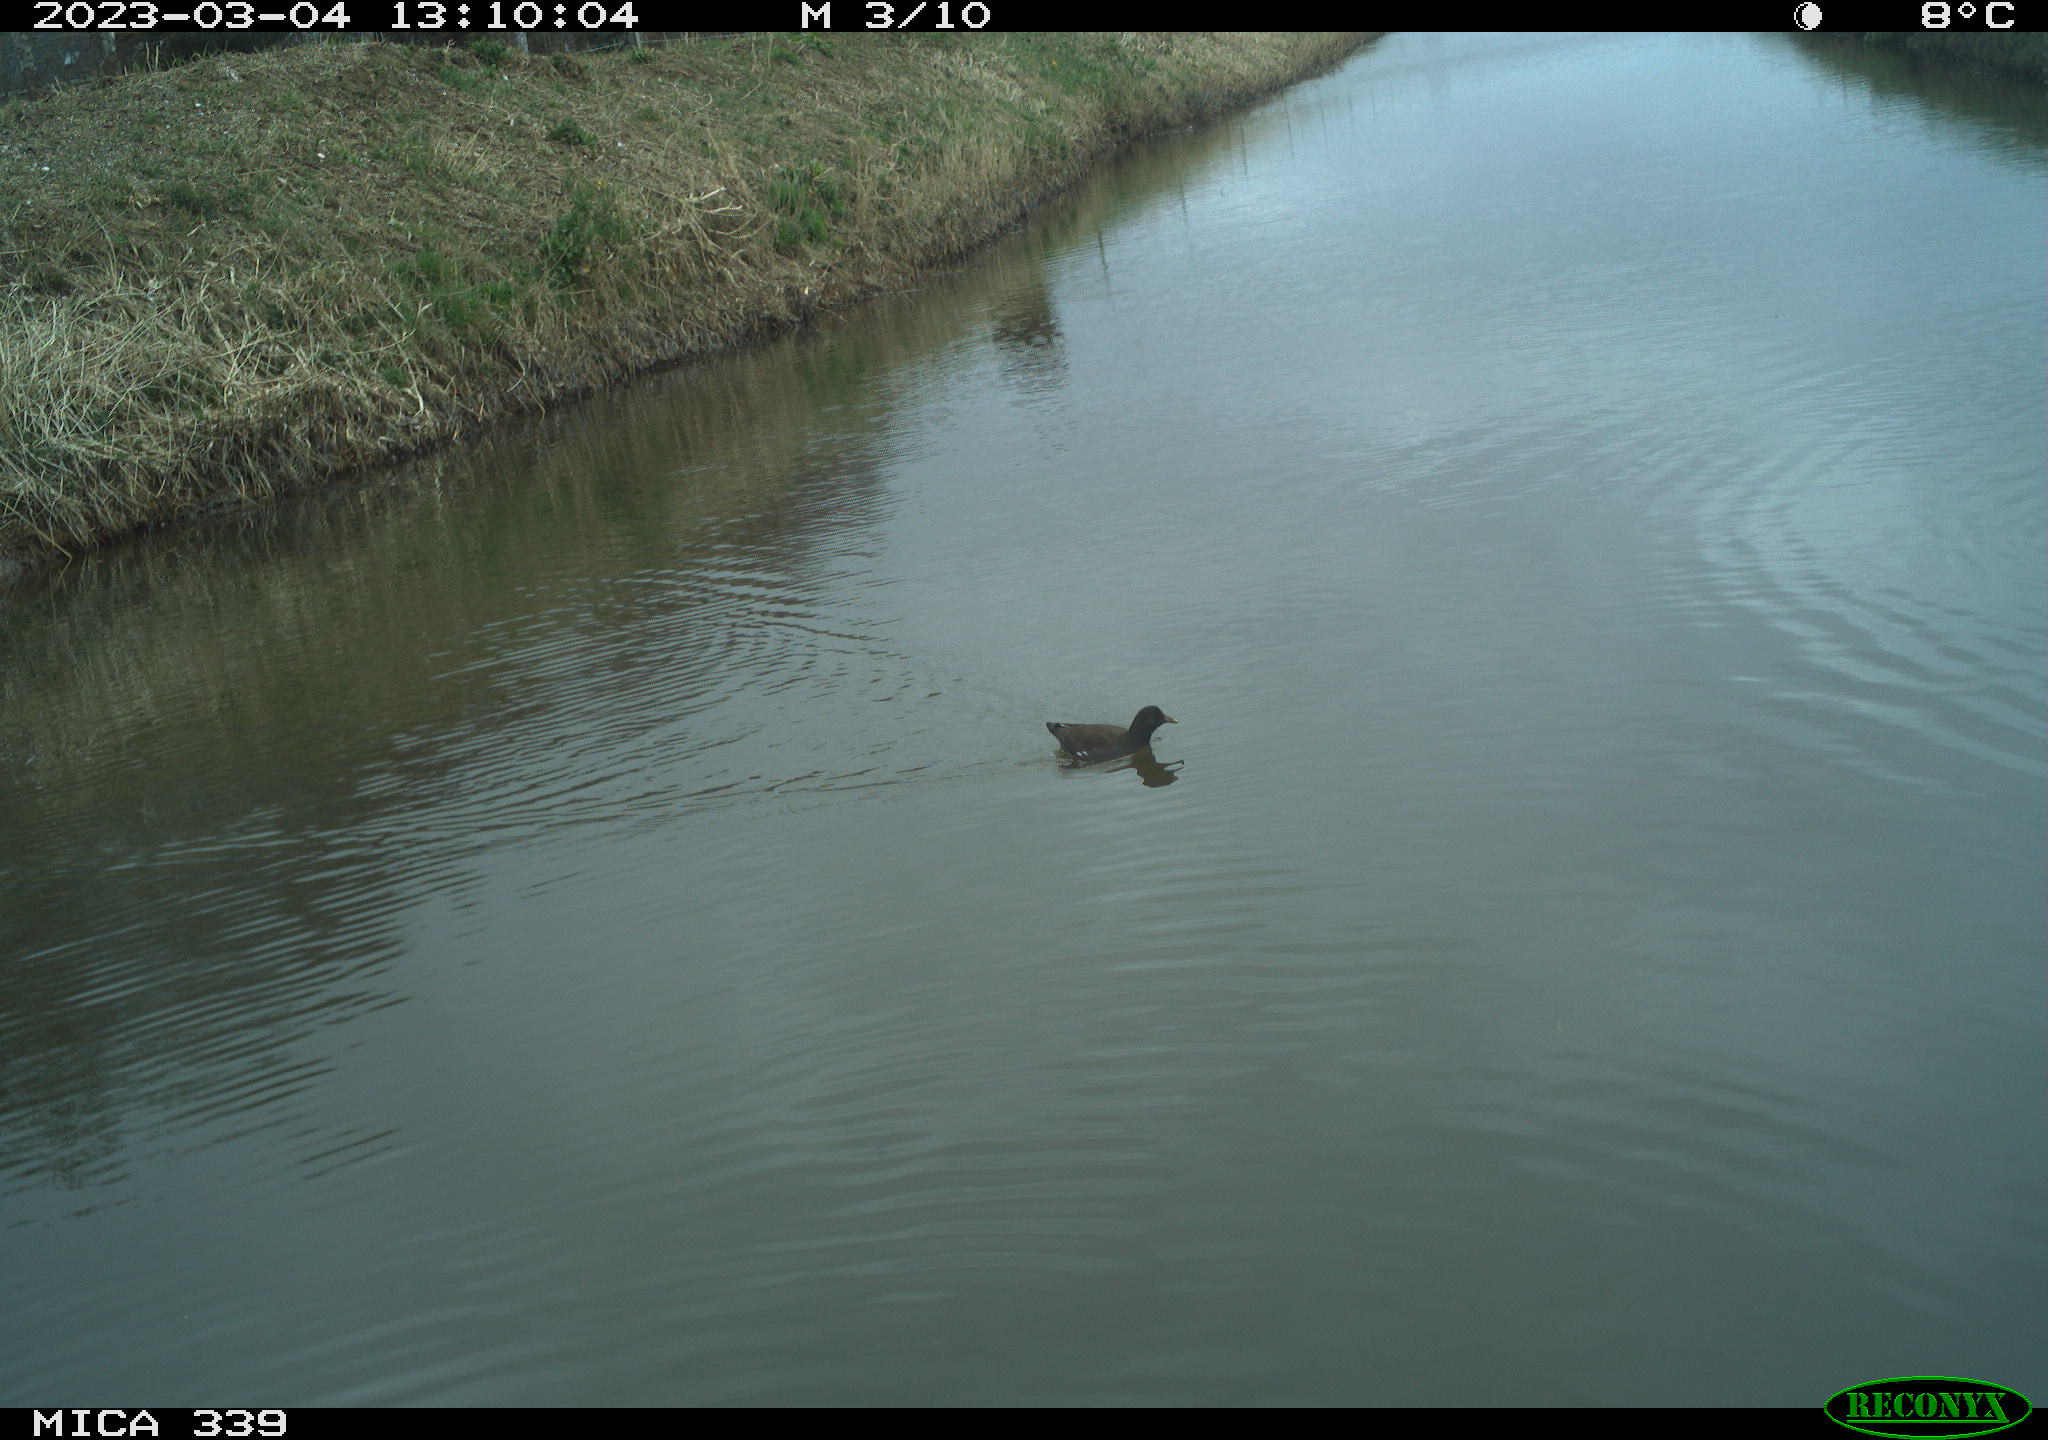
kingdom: Animalia
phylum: Chordata
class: Aves
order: Gruiformes
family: Rallidae
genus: Gallinula
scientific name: Gallinula chloropus
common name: Common moorhen
